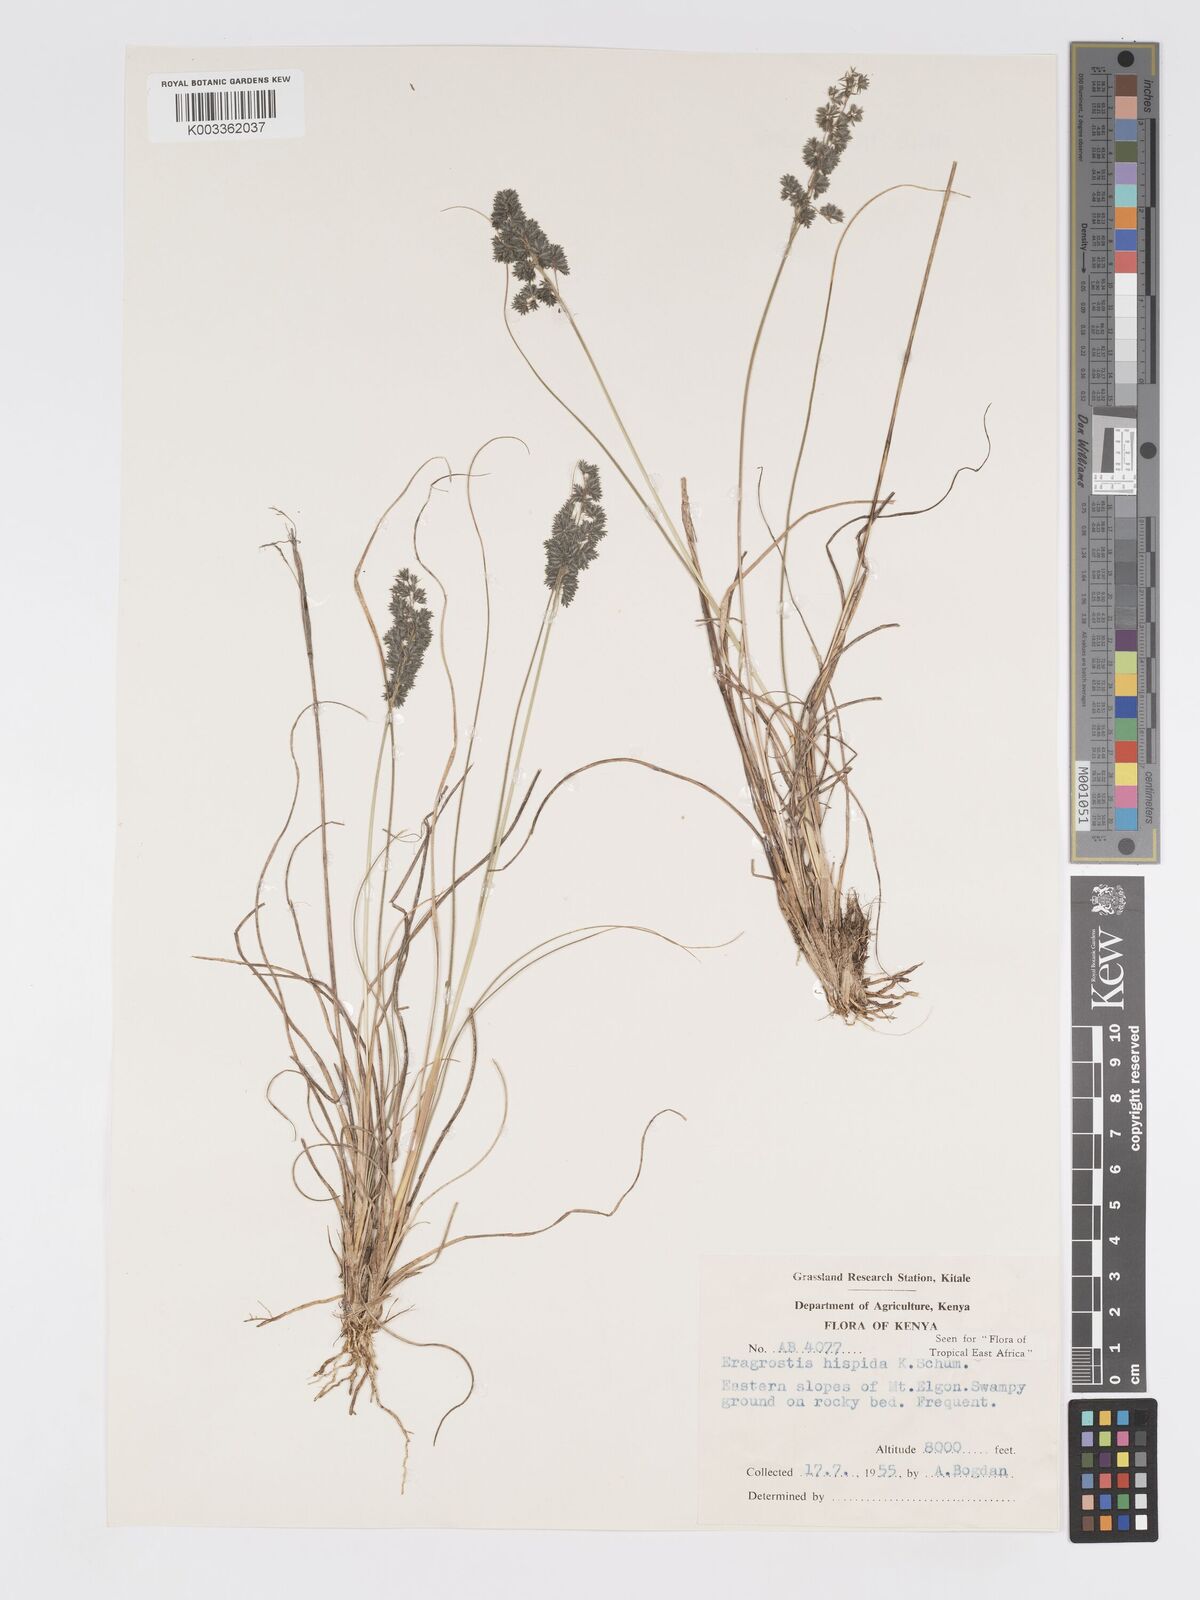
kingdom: Plantae
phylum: Tracheophyta
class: Liliopsida
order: Poales
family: Poaceae
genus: Eragrostis
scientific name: Eragrostis hispida
